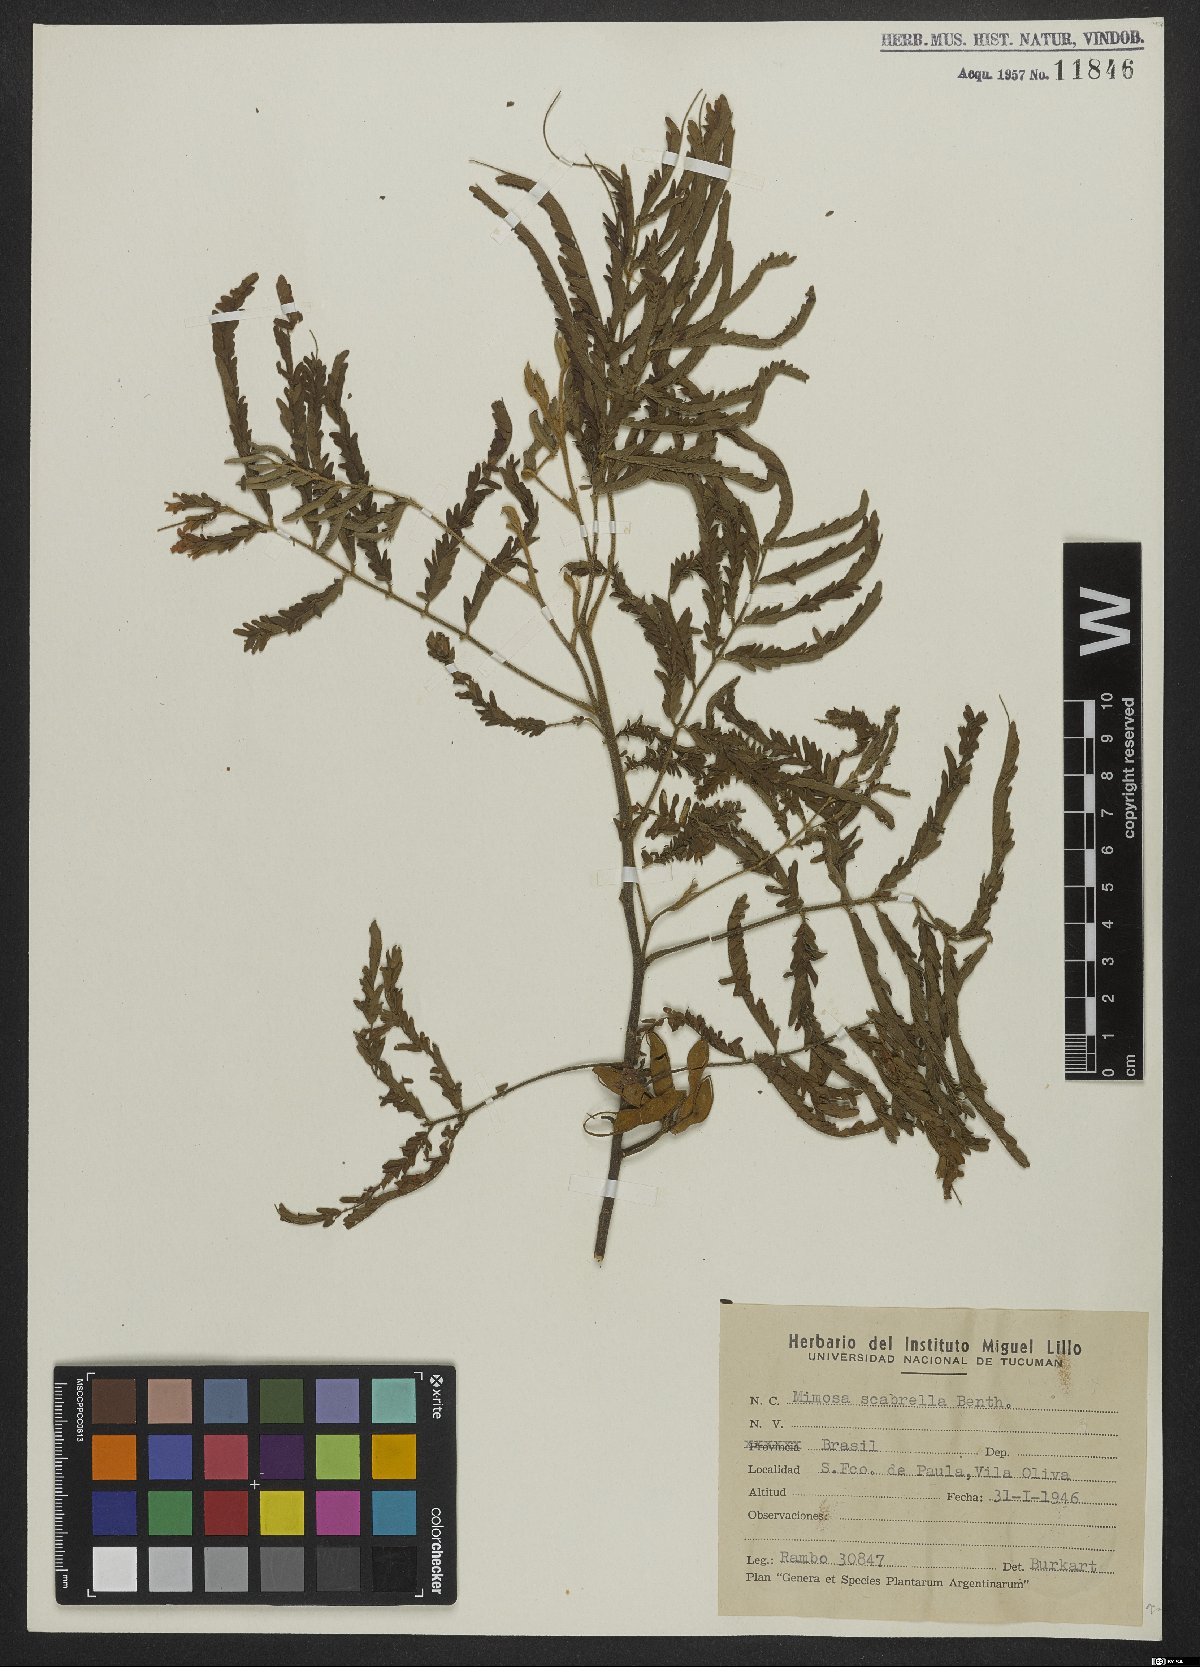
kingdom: Plantae
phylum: Tracheophyta
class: Magnoliopsida
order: Fabales
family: Fabaceae
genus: Mimosa
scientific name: Mimosa scabrella
